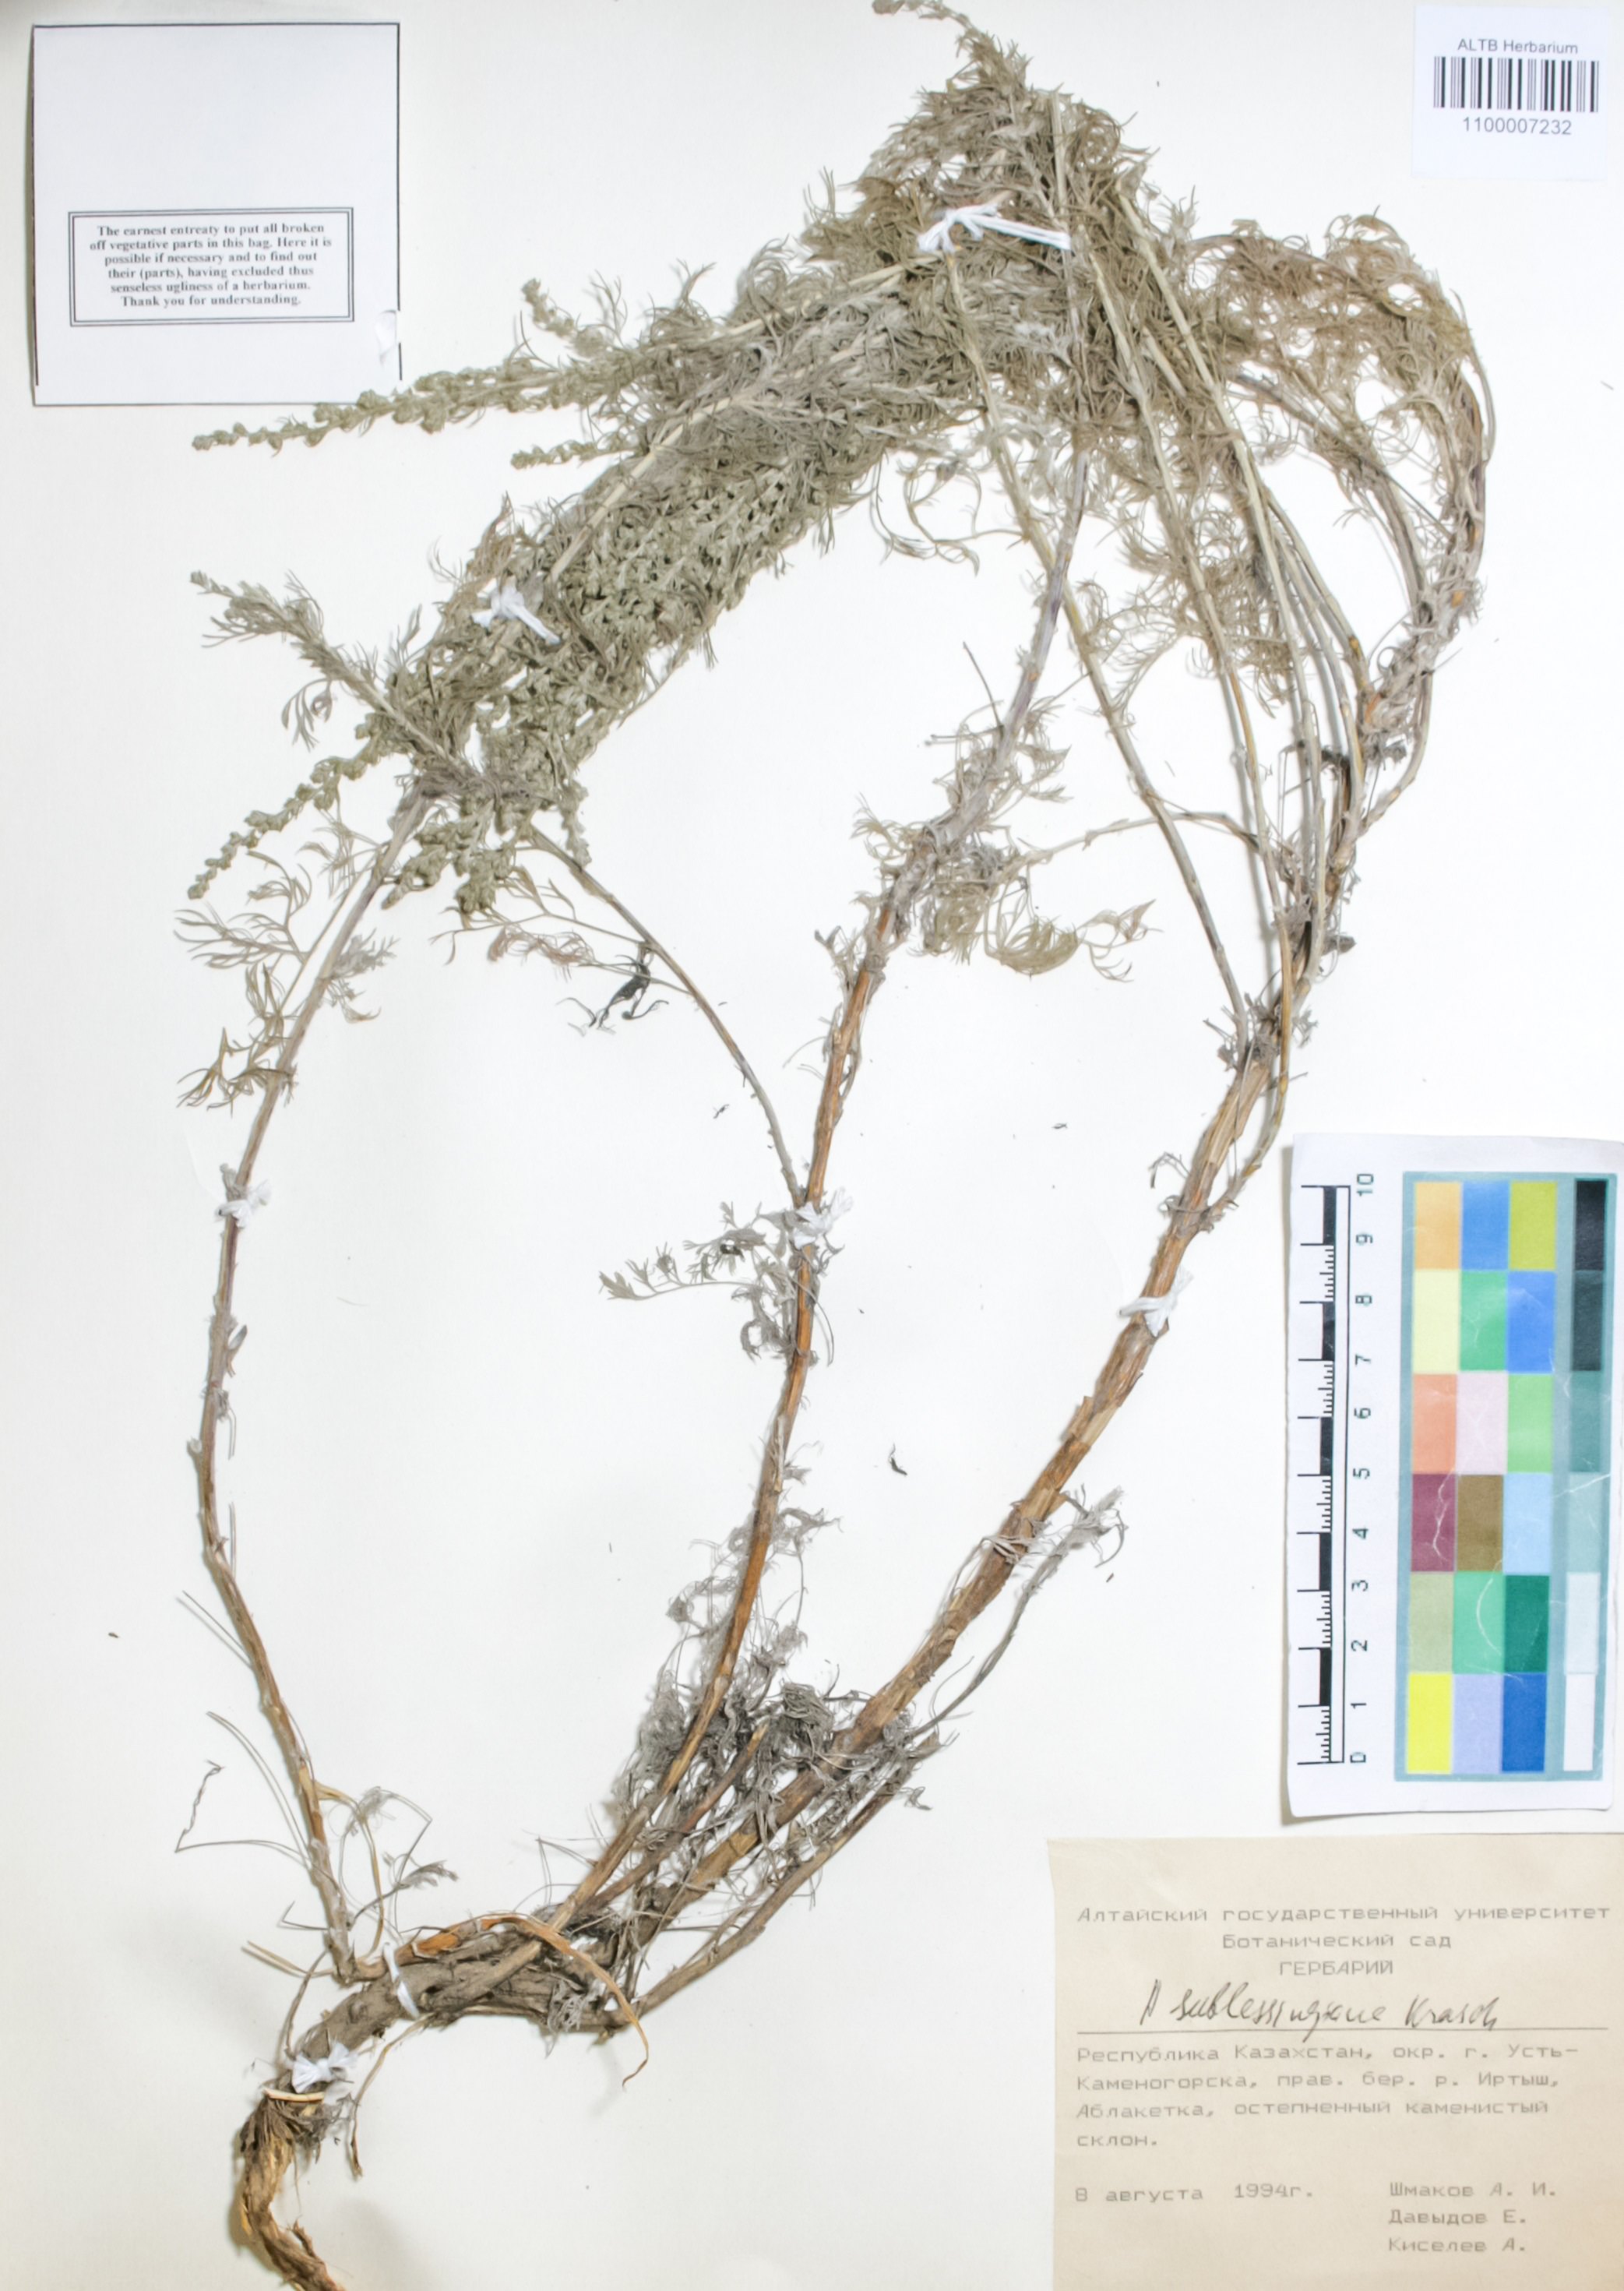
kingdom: Plantae
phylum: Tracheophyta
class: Magnoliopsida
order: Asterales
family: Asteraceae
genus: Artemisia
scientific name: Artemisia sublessingiana
